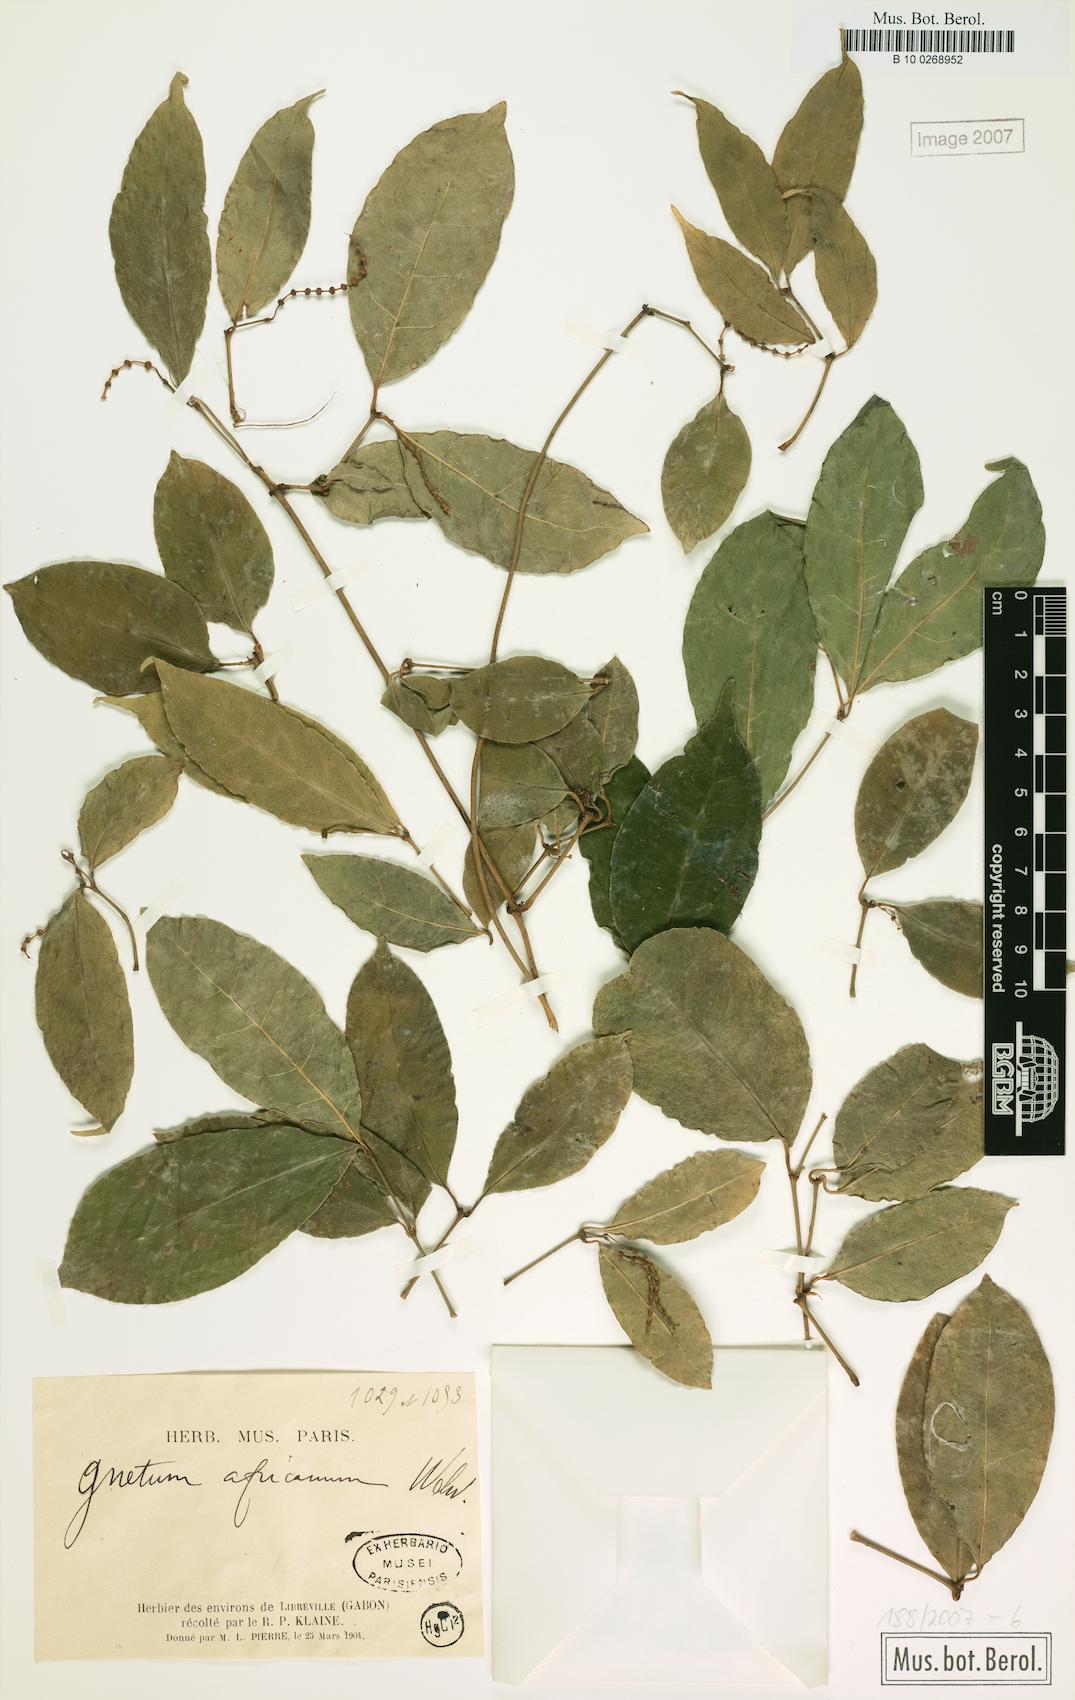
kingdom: Plantae
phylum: Tracheophyta
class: Gnetopsida
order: Gnetales
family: Gnetaceae
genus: Gnetum
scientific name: Gnetum africanum
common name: Eru
